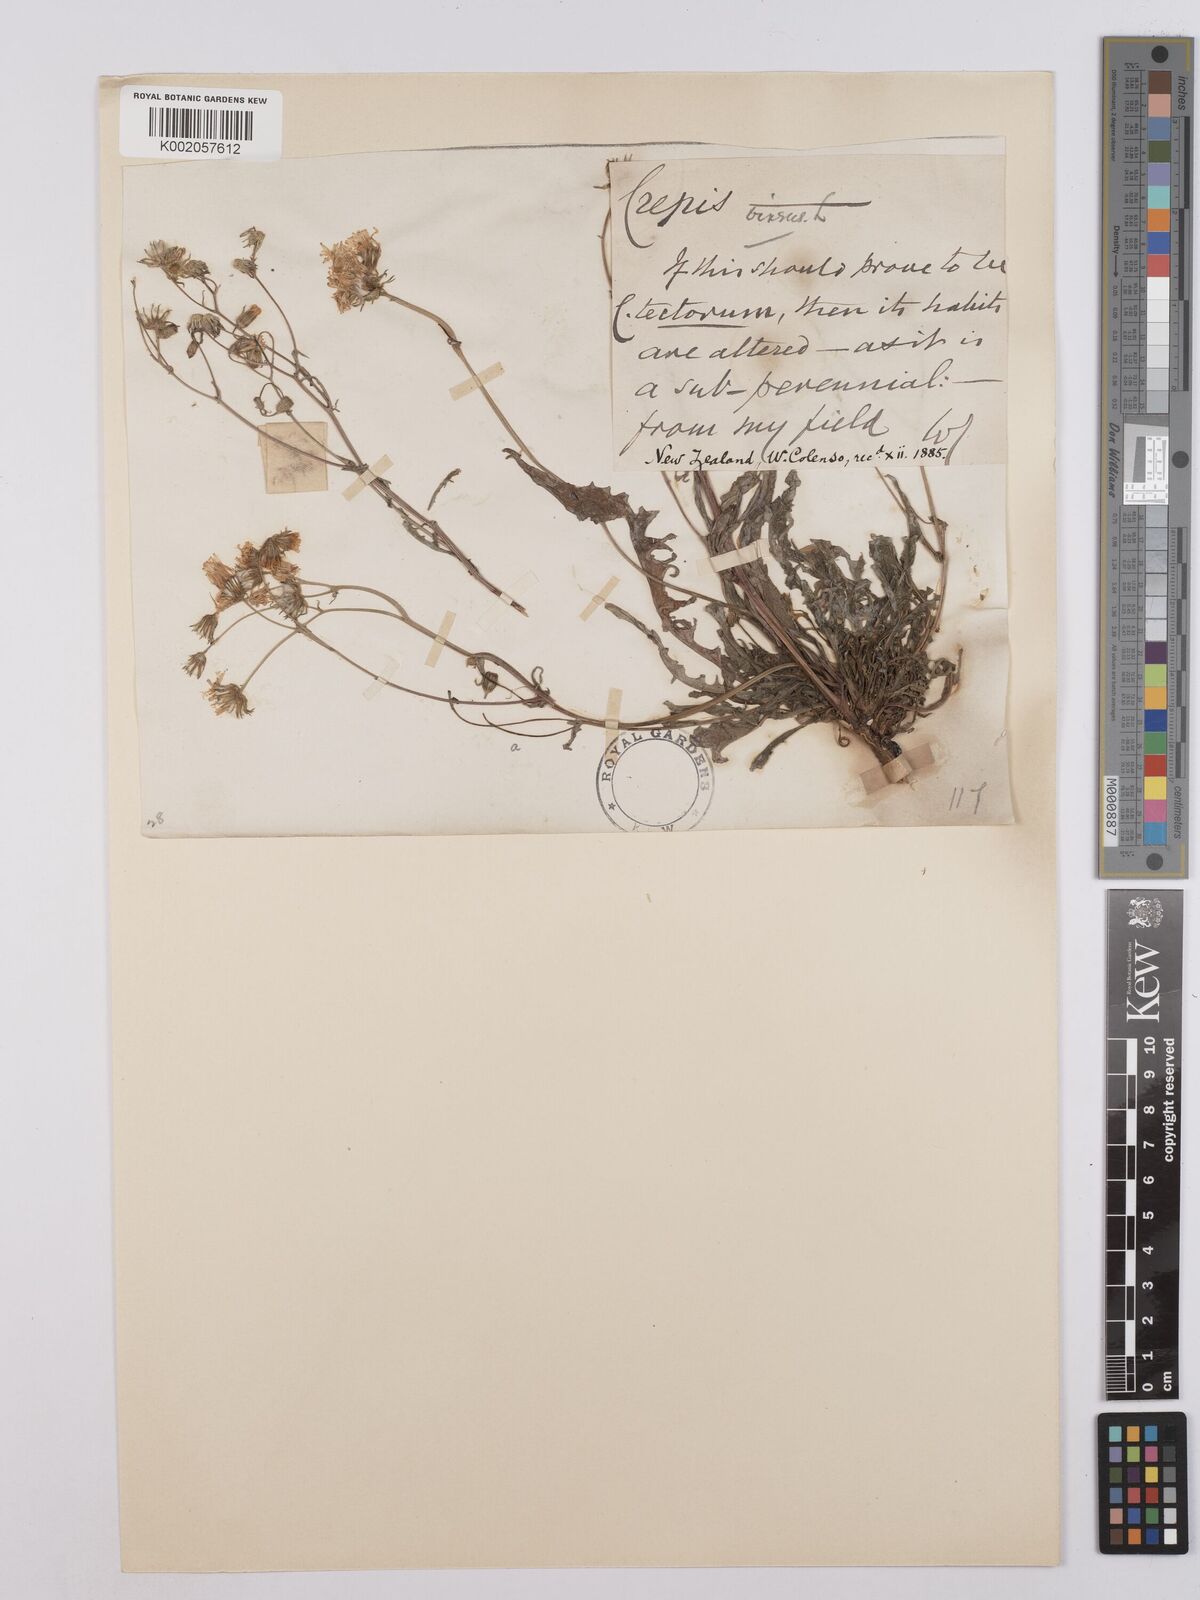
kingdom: Plantae
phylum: Tracheophyta
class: Magnoliopsida
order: Asterales
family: Asteraceae
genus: Crepis
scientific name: Crepis capillaris
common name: Smooth hawksbeard
